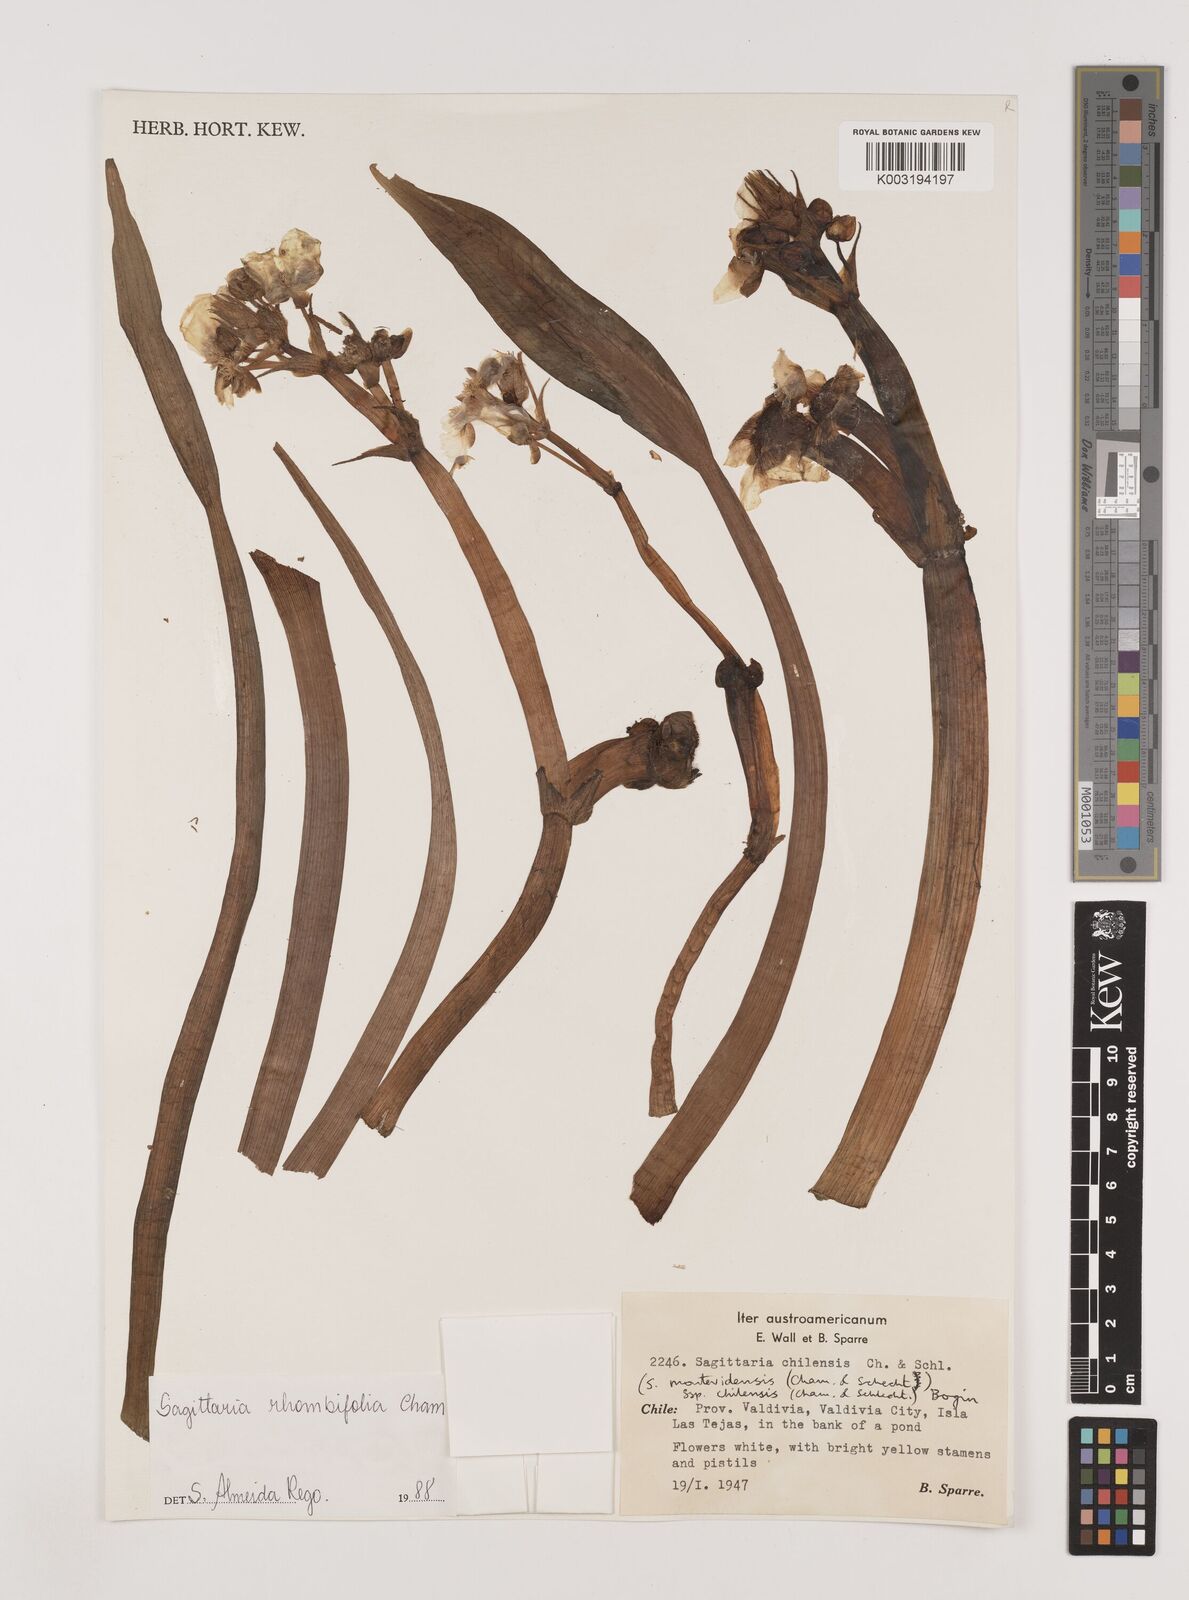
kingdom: Plantae
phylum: Tracheophyta
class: Liliopsida
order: Alismatales
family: Alismataceae
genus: Sagittaria
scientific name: Sagittaria montevidensis
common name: Giant arrowhead
